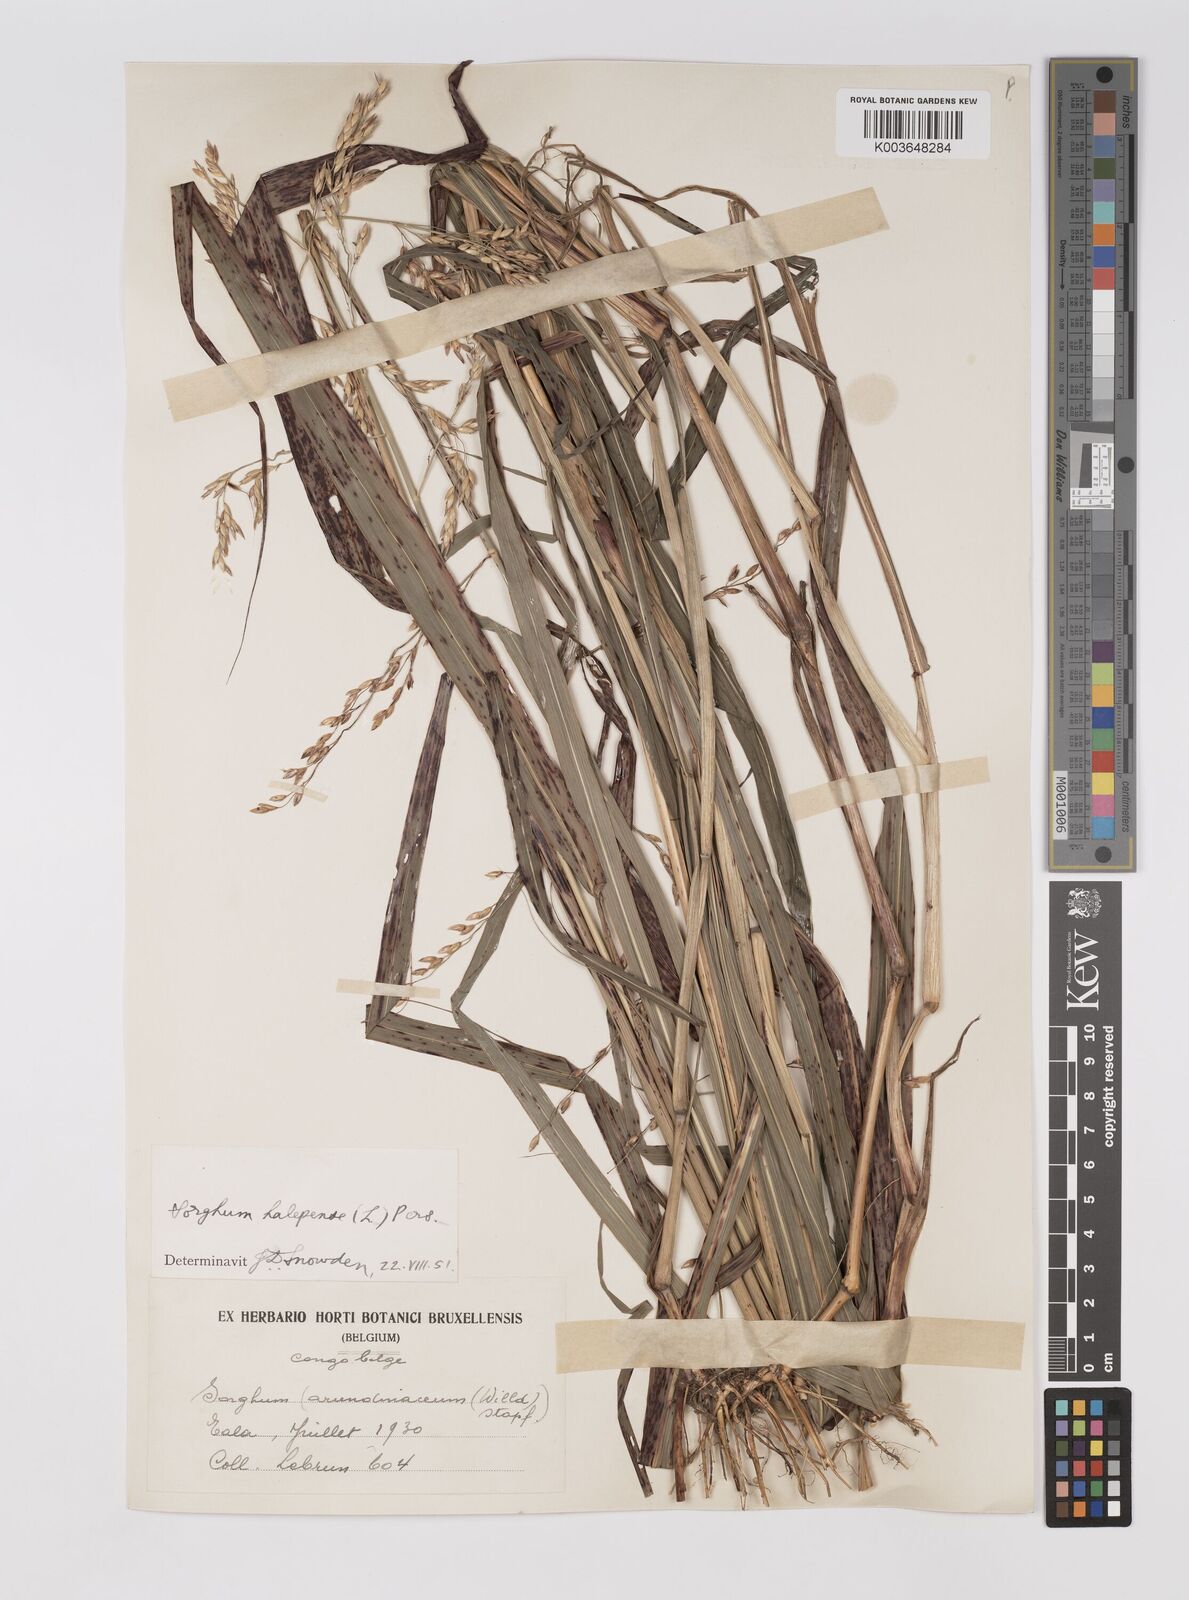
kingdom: Plantae
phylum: Tracheophyta
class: Liliopsida
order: Poales
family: Poaceae
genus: Sorghum
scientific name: Sorghum halepense
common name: Johnson-grass
